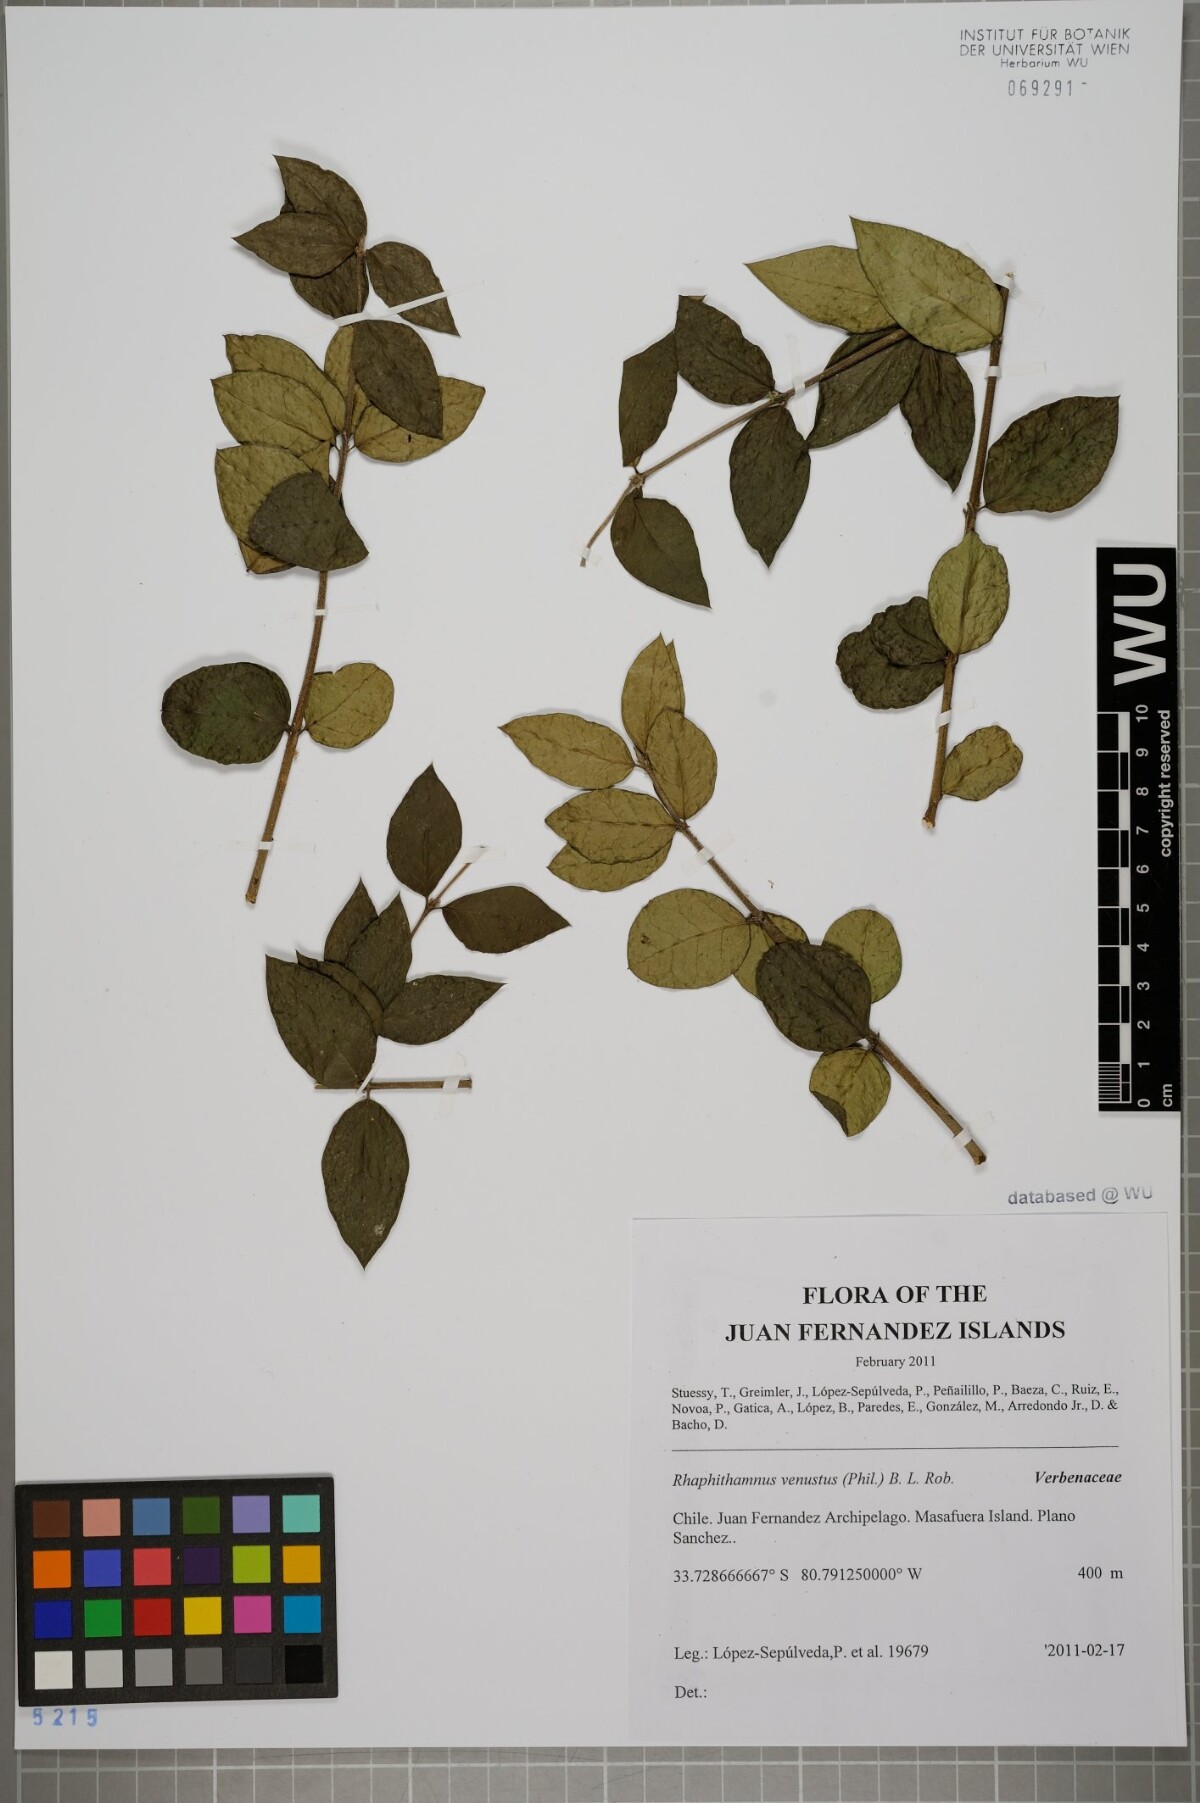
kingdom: Plantae
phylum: Tracheophyta
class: Magnoliopsida
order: Lamiales
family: Verbenaceae
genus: Rhaphithamnus
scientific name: Rhaphithamnus venustus
